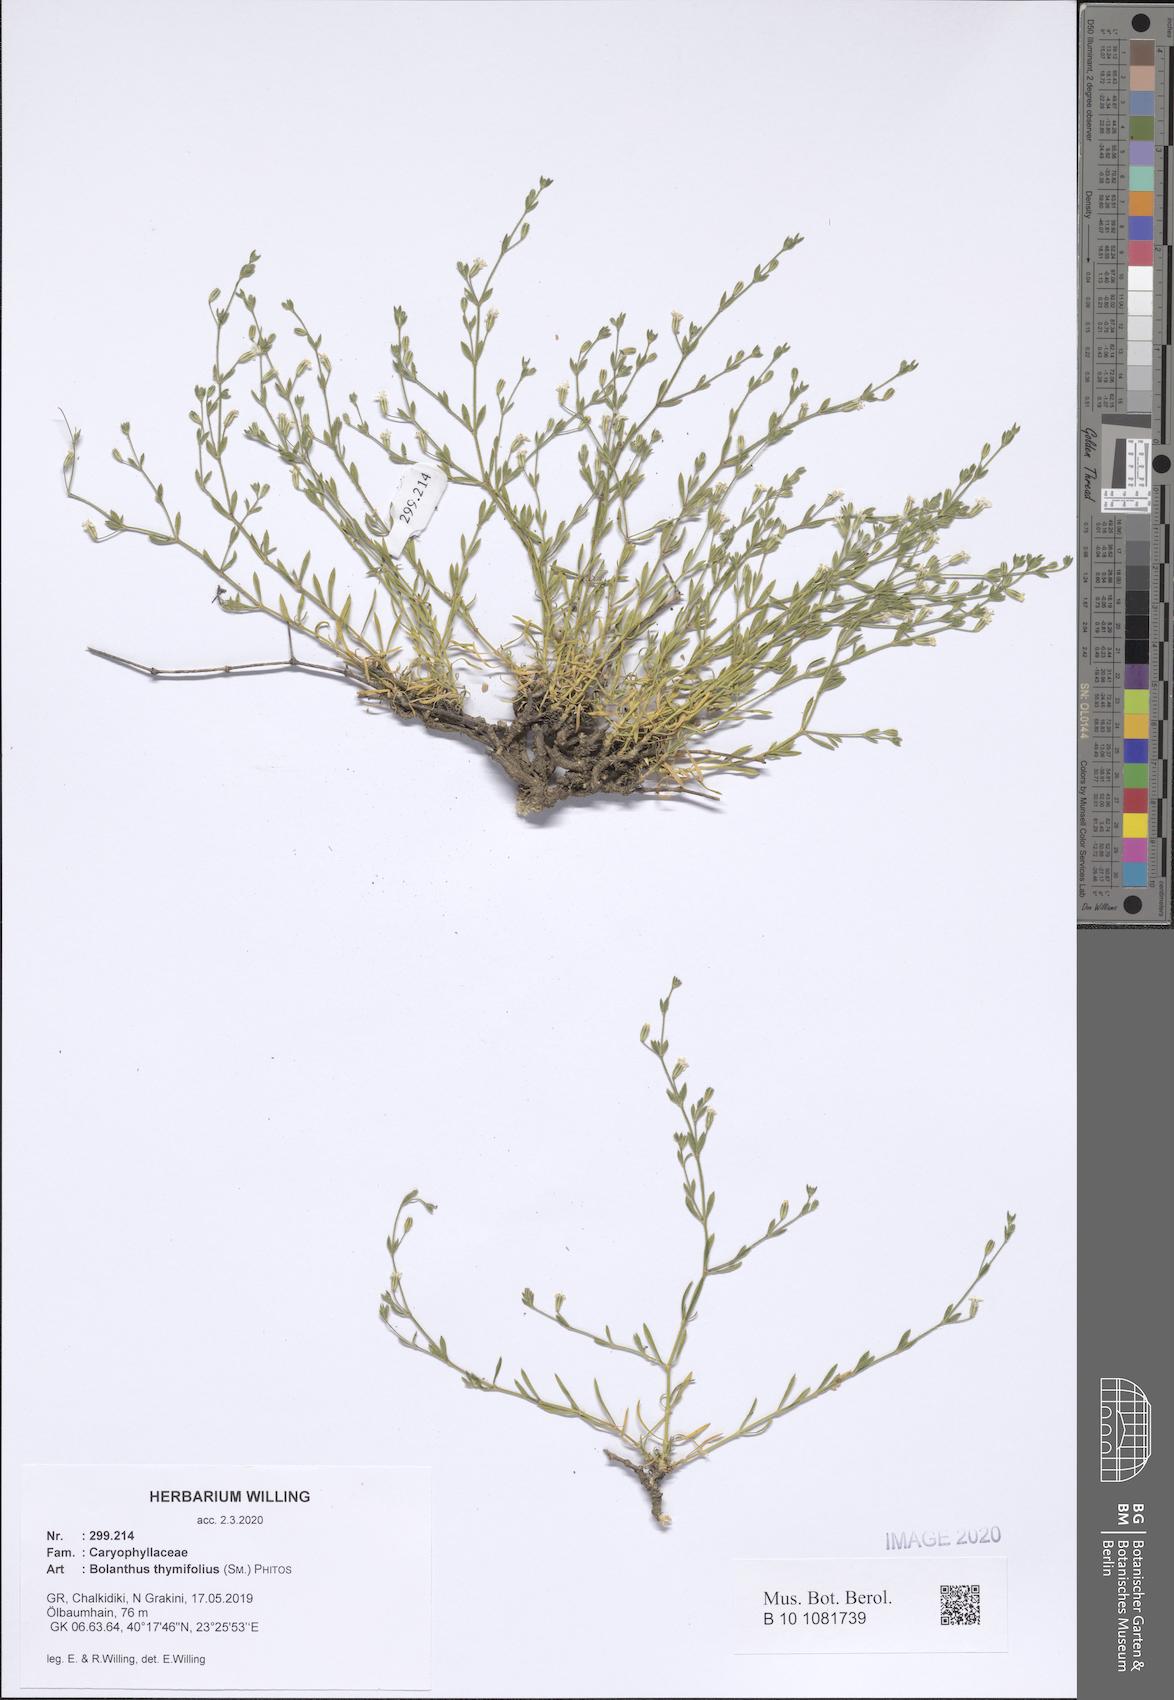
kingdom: Plantae
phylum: Tracheophyta
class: Magnoliopsida
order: Caryophyllales
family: Caryophyllaceae
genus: Graecobolanthus
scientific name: Graecobolanthus thymifolius
